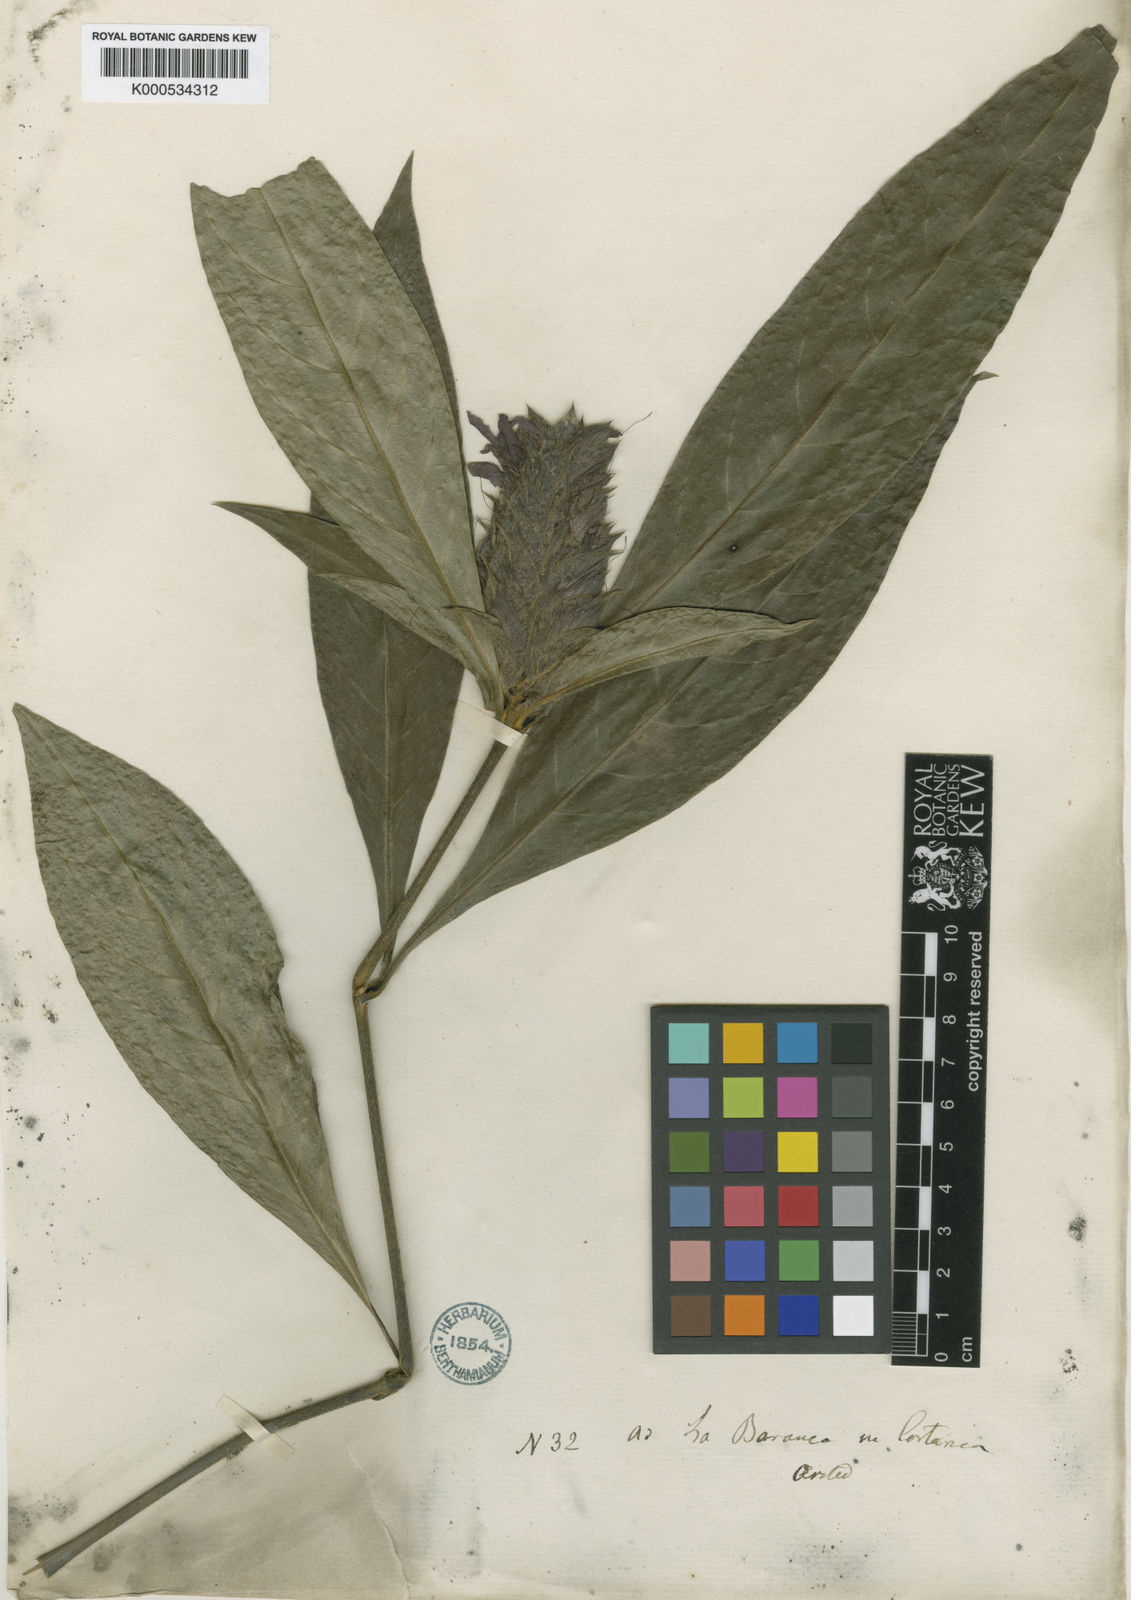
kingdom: Plantae
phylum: Tracheophyta
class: Magnoliopsida
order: Lamiales
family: Acanthaceae
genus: Barleria
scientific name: Barleria oenotheroides
